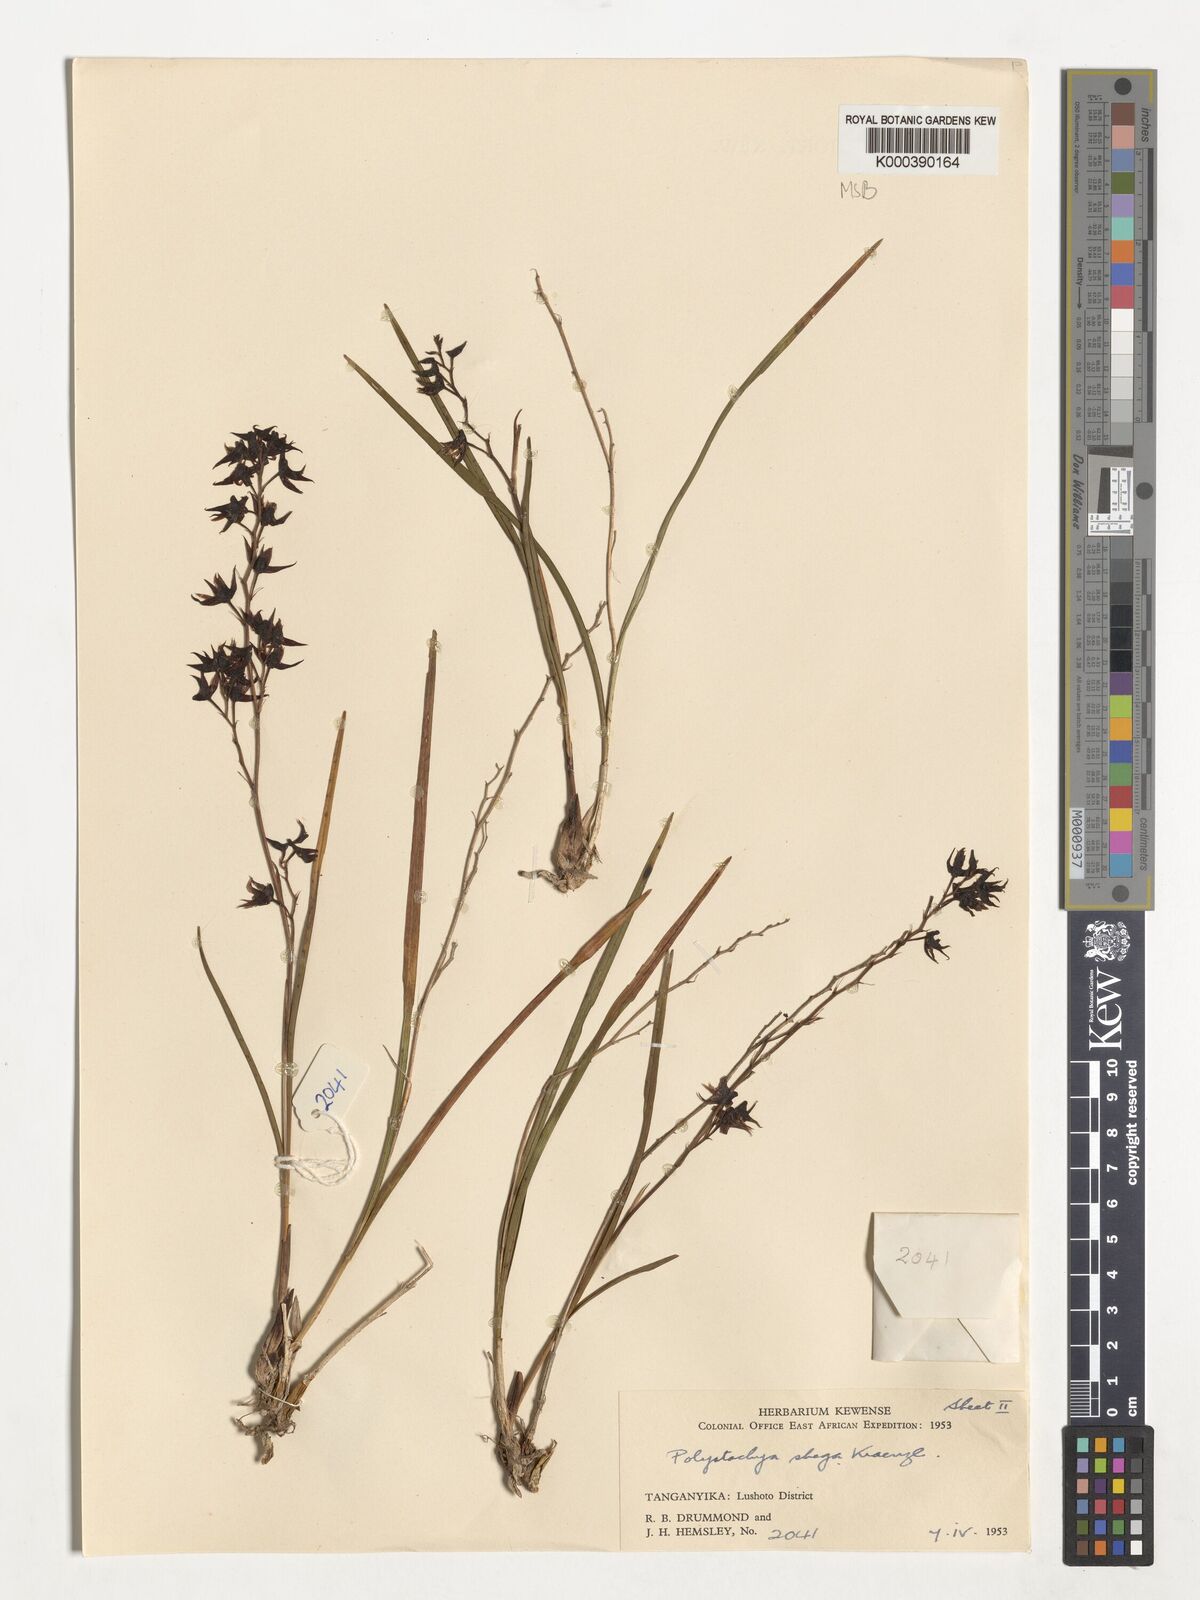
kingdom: Plantae
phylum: Tracheophyta
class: Liliopsida
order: Asparagales
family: Orchidaceae
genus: Polystachya
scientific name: Polystachya shega
